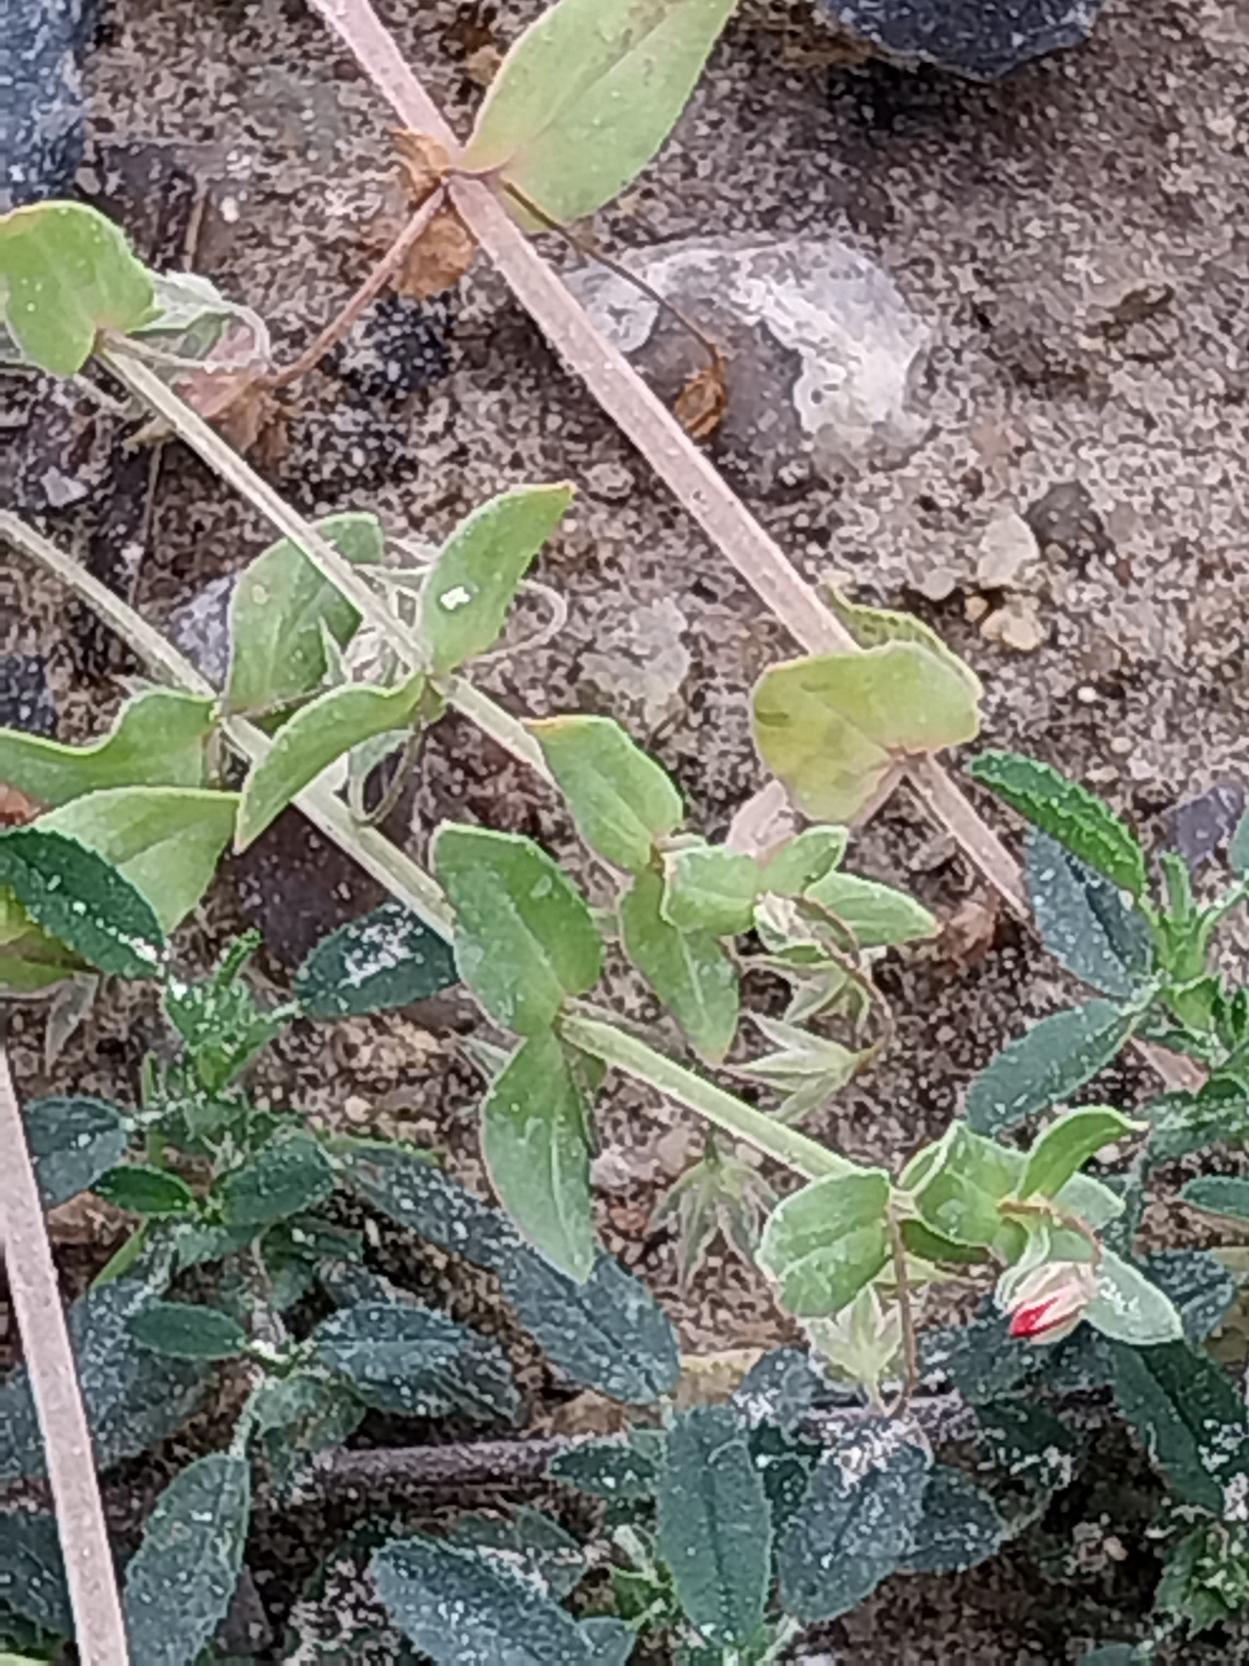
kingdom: Plantae
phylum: Tracheophyta
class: Magnoliopsida
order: Ericales
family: Primulaceae
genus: Lysimachia
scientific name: Lysimachia arvensis
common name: Rød arve
